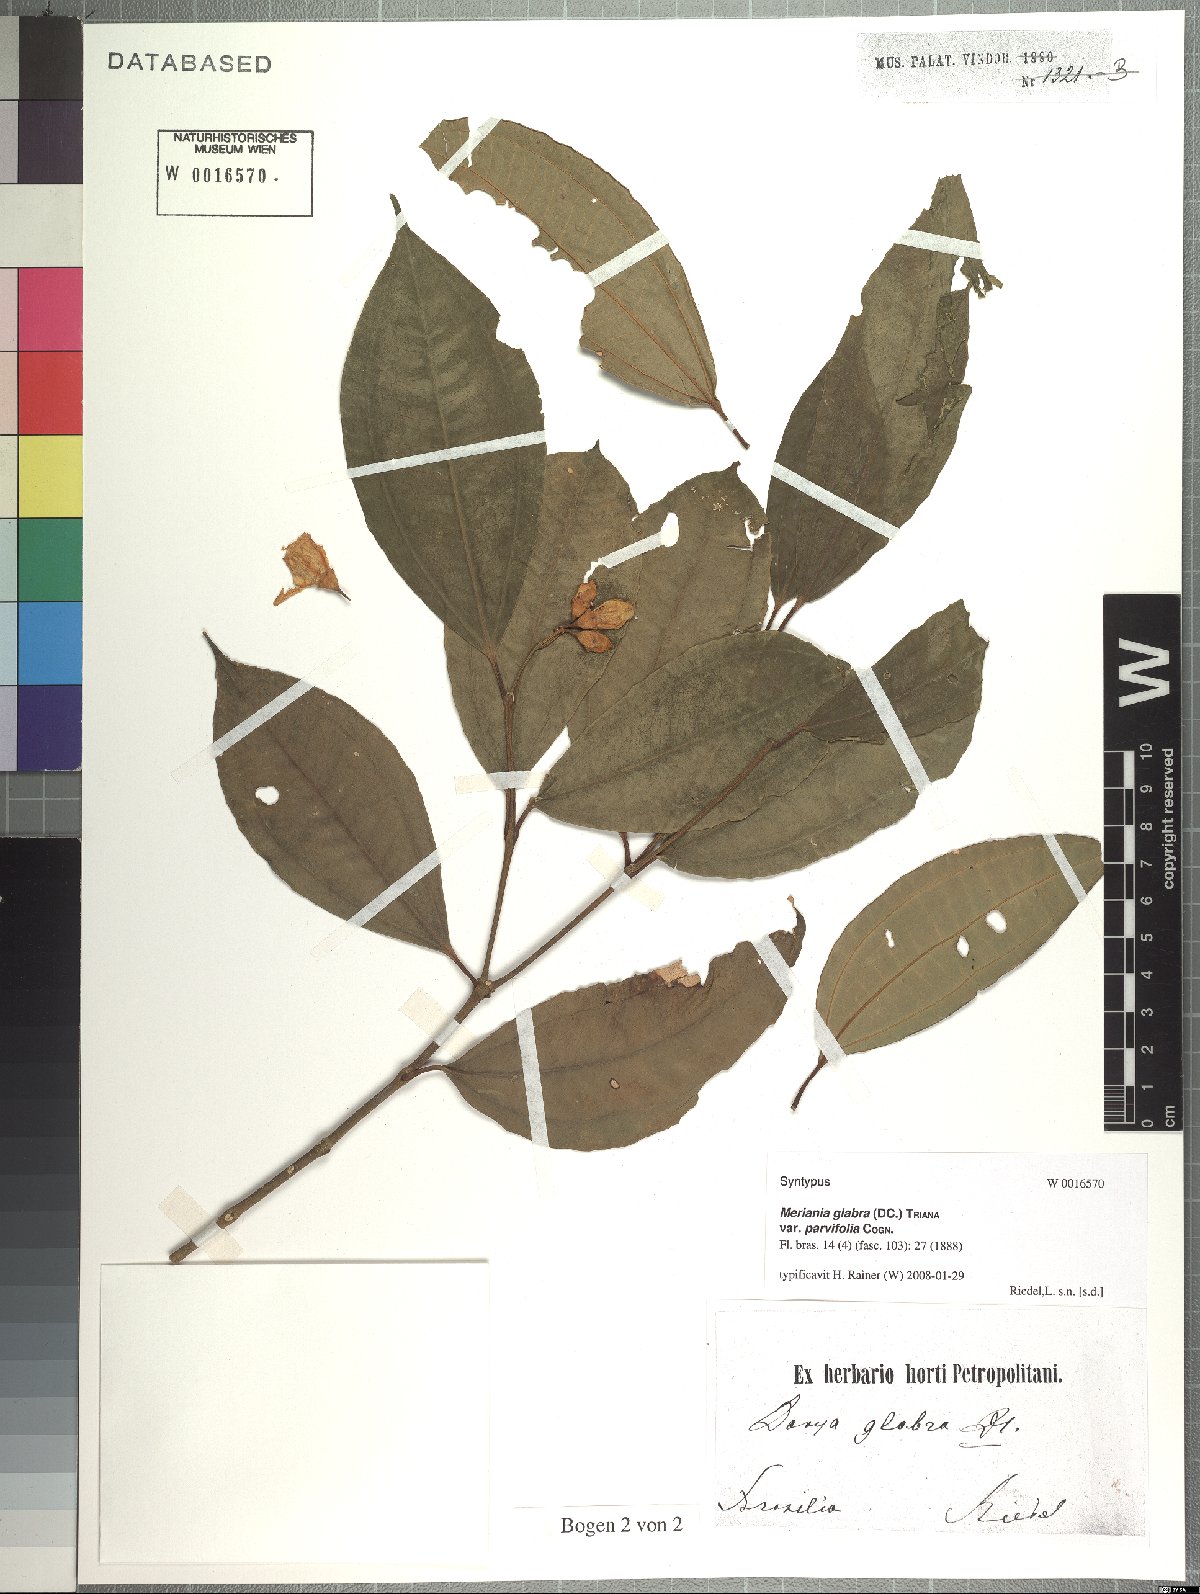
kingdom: Plantae
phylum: Tracheophyta
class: Magnoliopsida
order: Myrtales
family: Melastomataceae
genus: Meriania
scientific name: Meriania glabra
